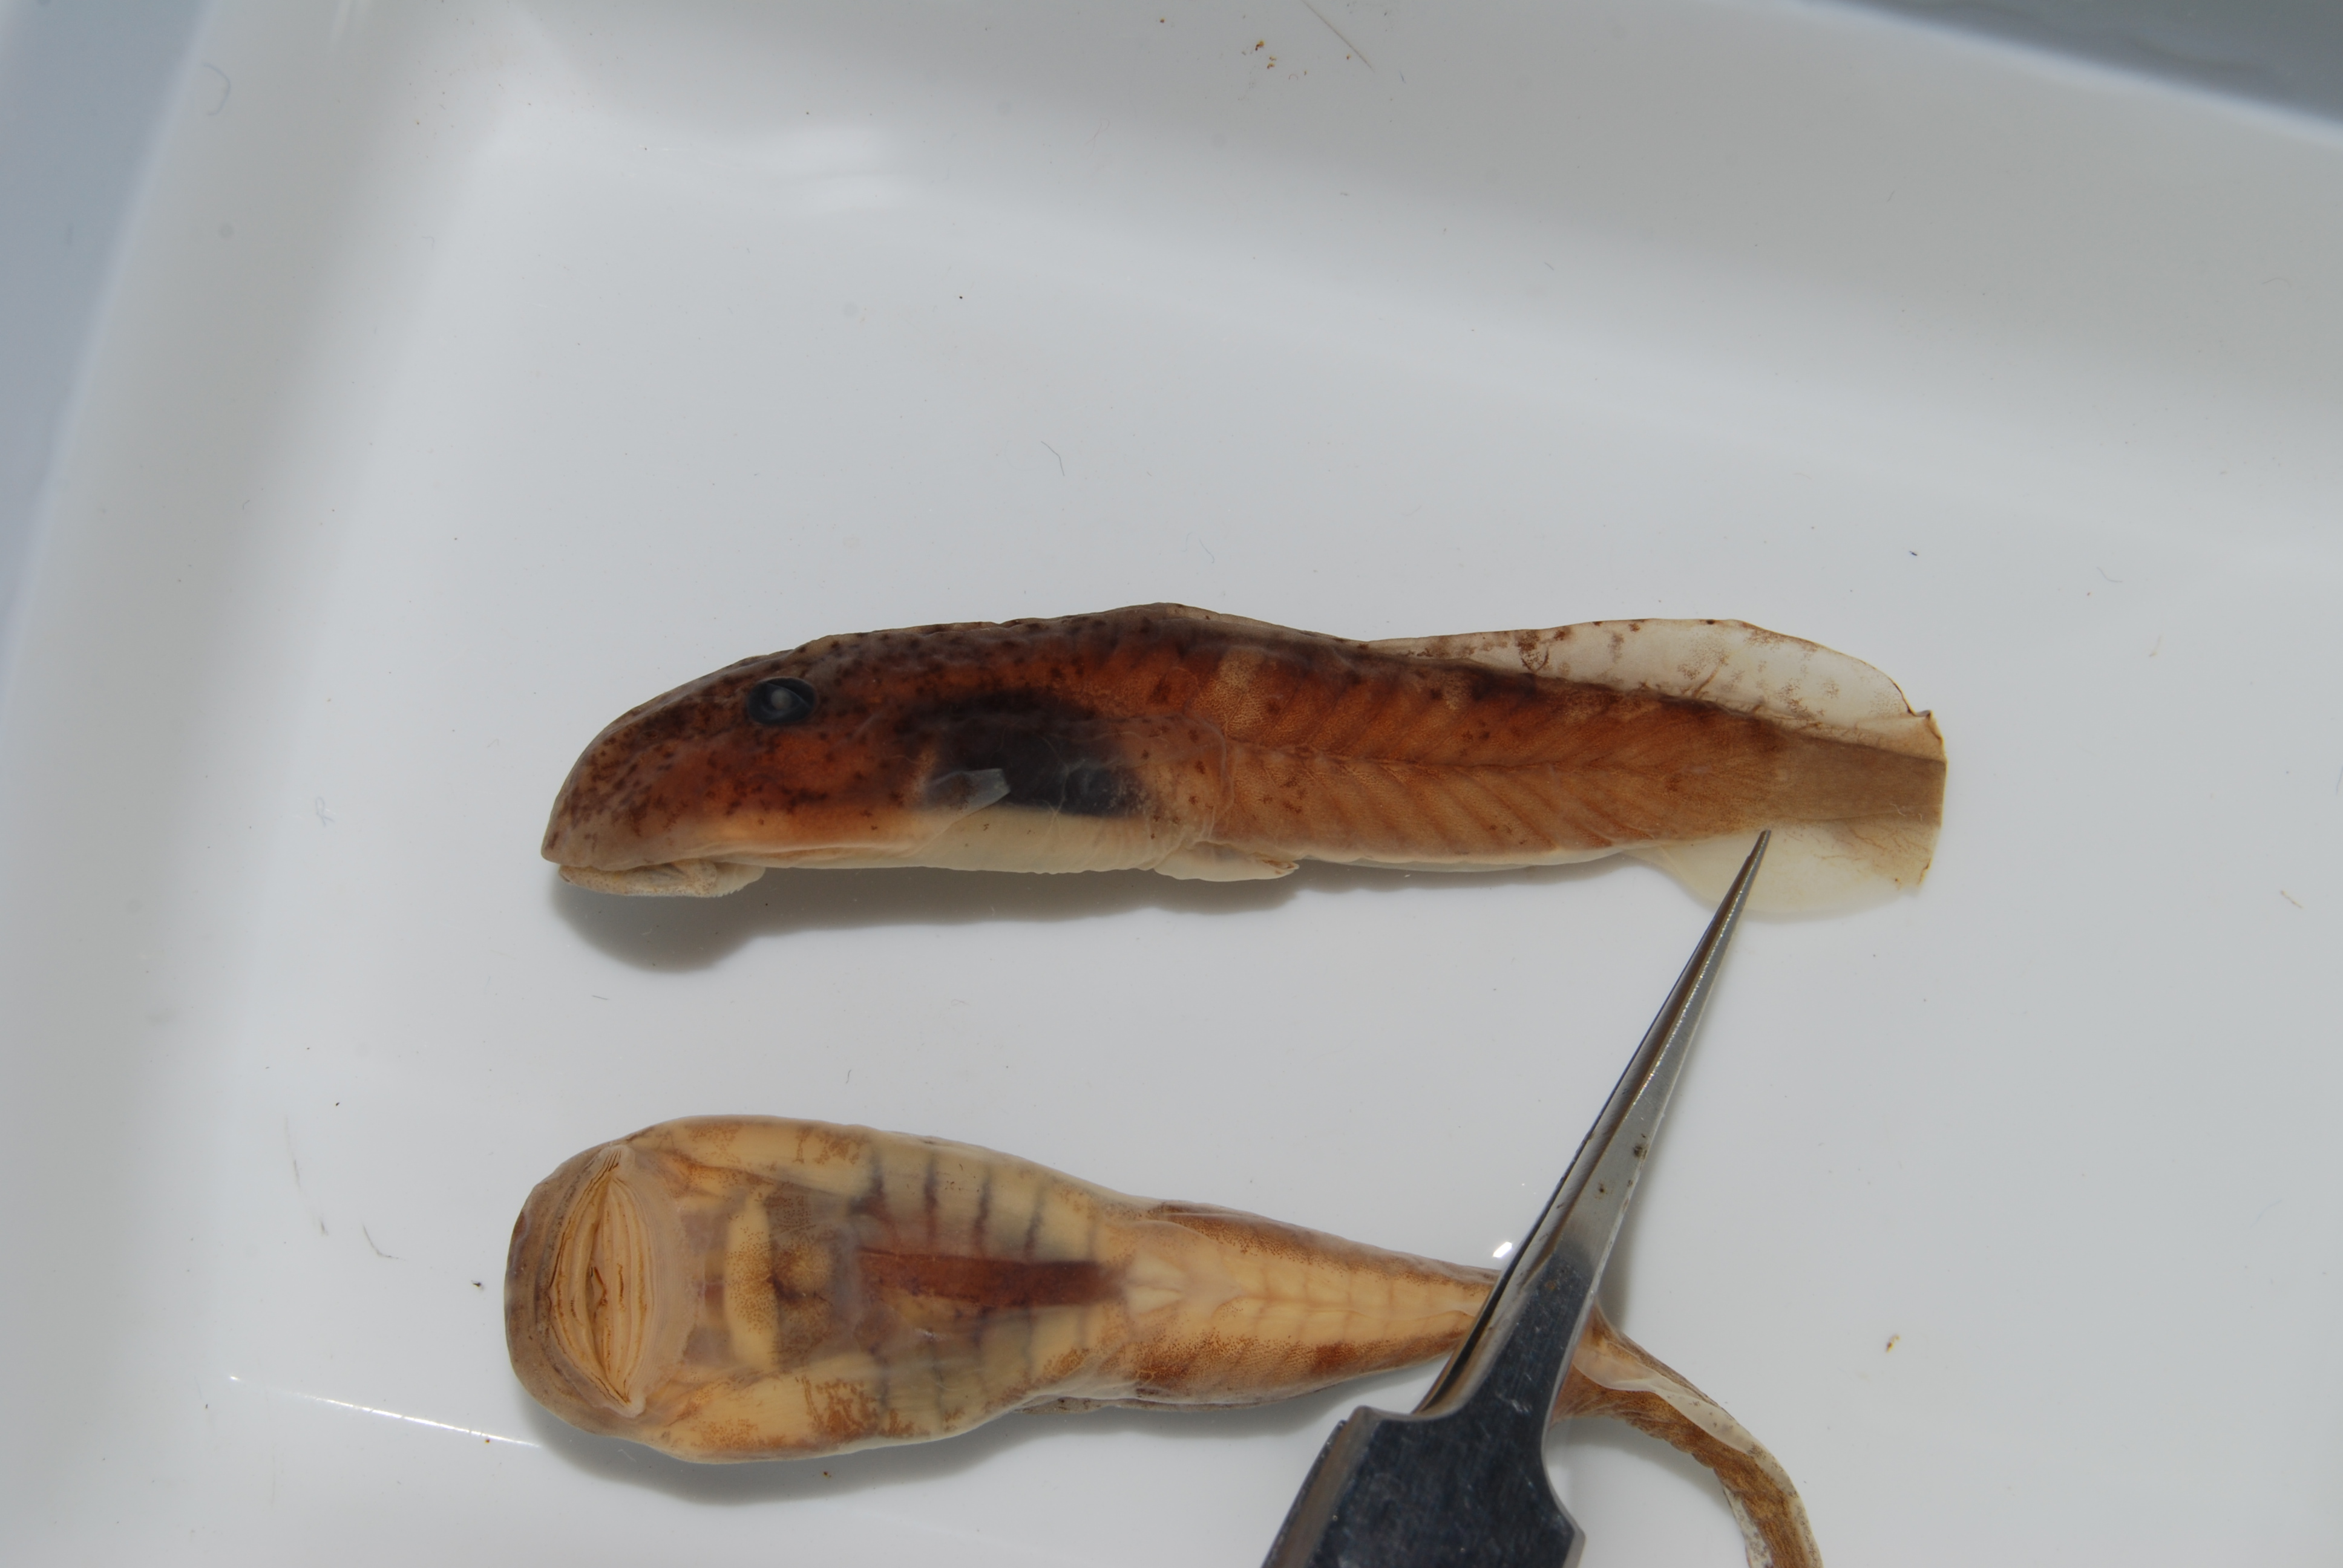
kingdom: Animalia
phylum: Chordata
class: Amphibia
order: Anura
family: Heleophrynidae
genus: Hadromophryne
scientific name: Hadromophryne natalensis
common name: Natal ghost frog
